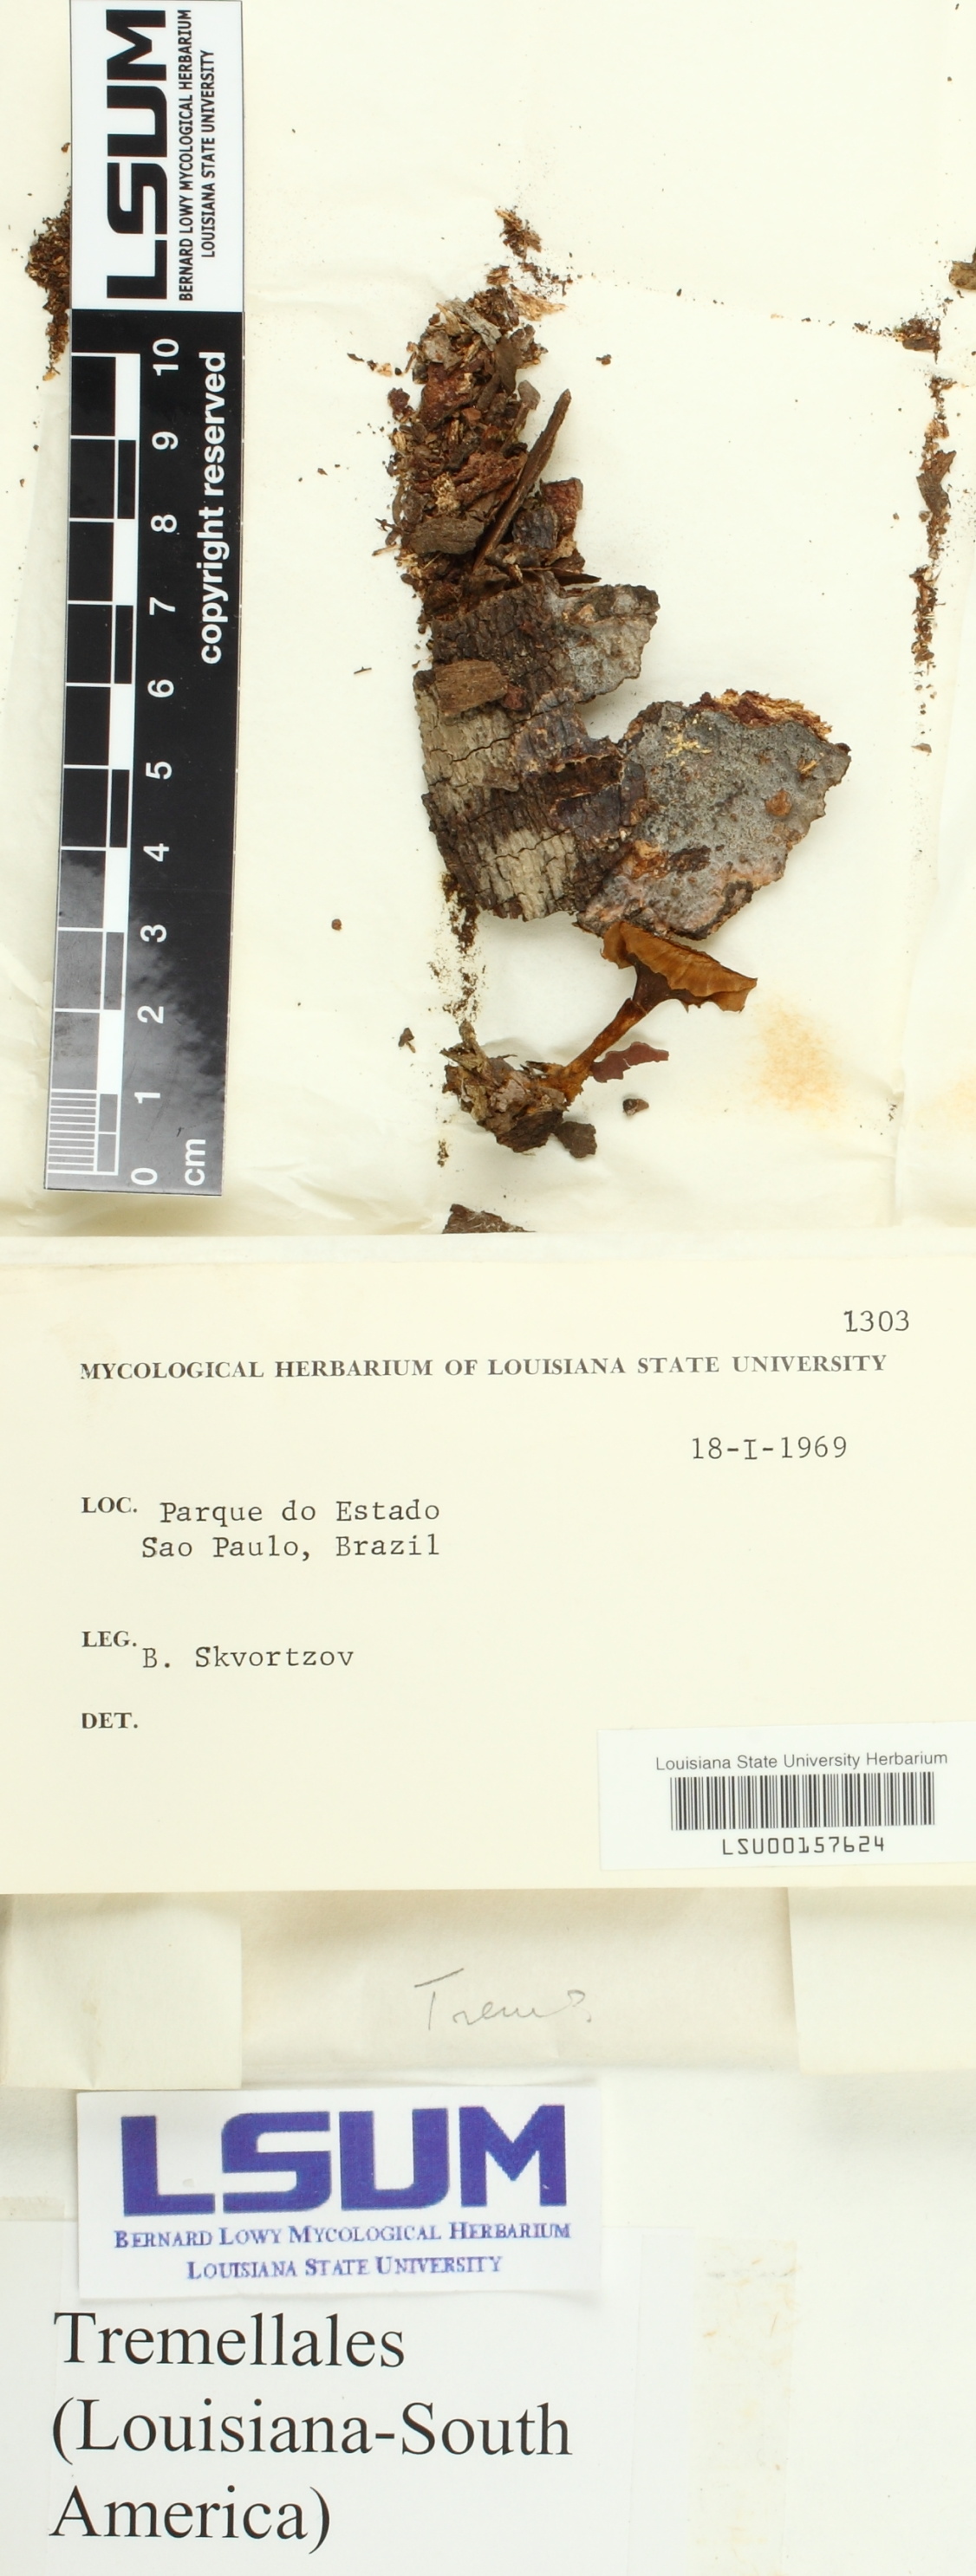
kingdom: Fungi
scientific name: Fungi
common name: Fungi
